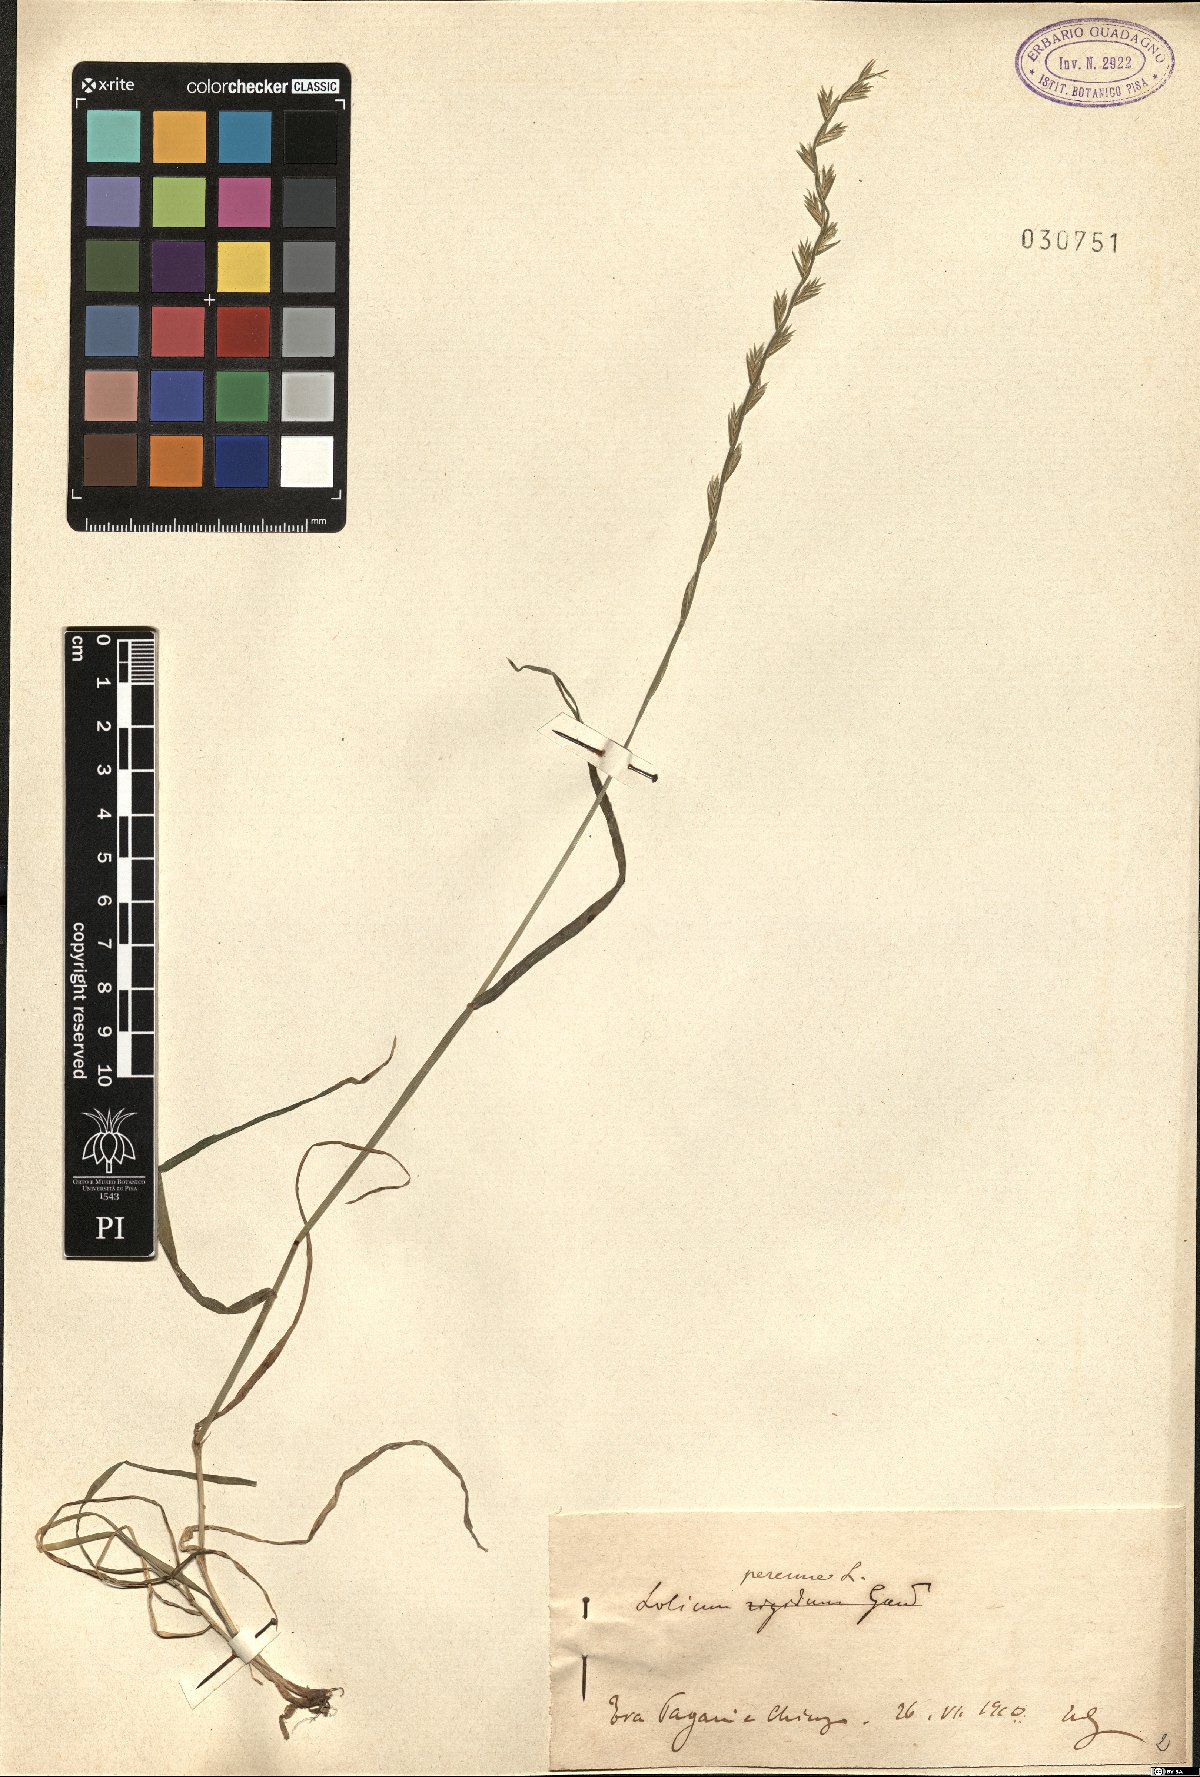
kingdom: Plantae
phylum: Tracheophyta
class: Liliopsida
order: Poales
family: Poaceae
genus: Lolium
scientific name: Lolium perenne
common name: Perennial ryegrass
